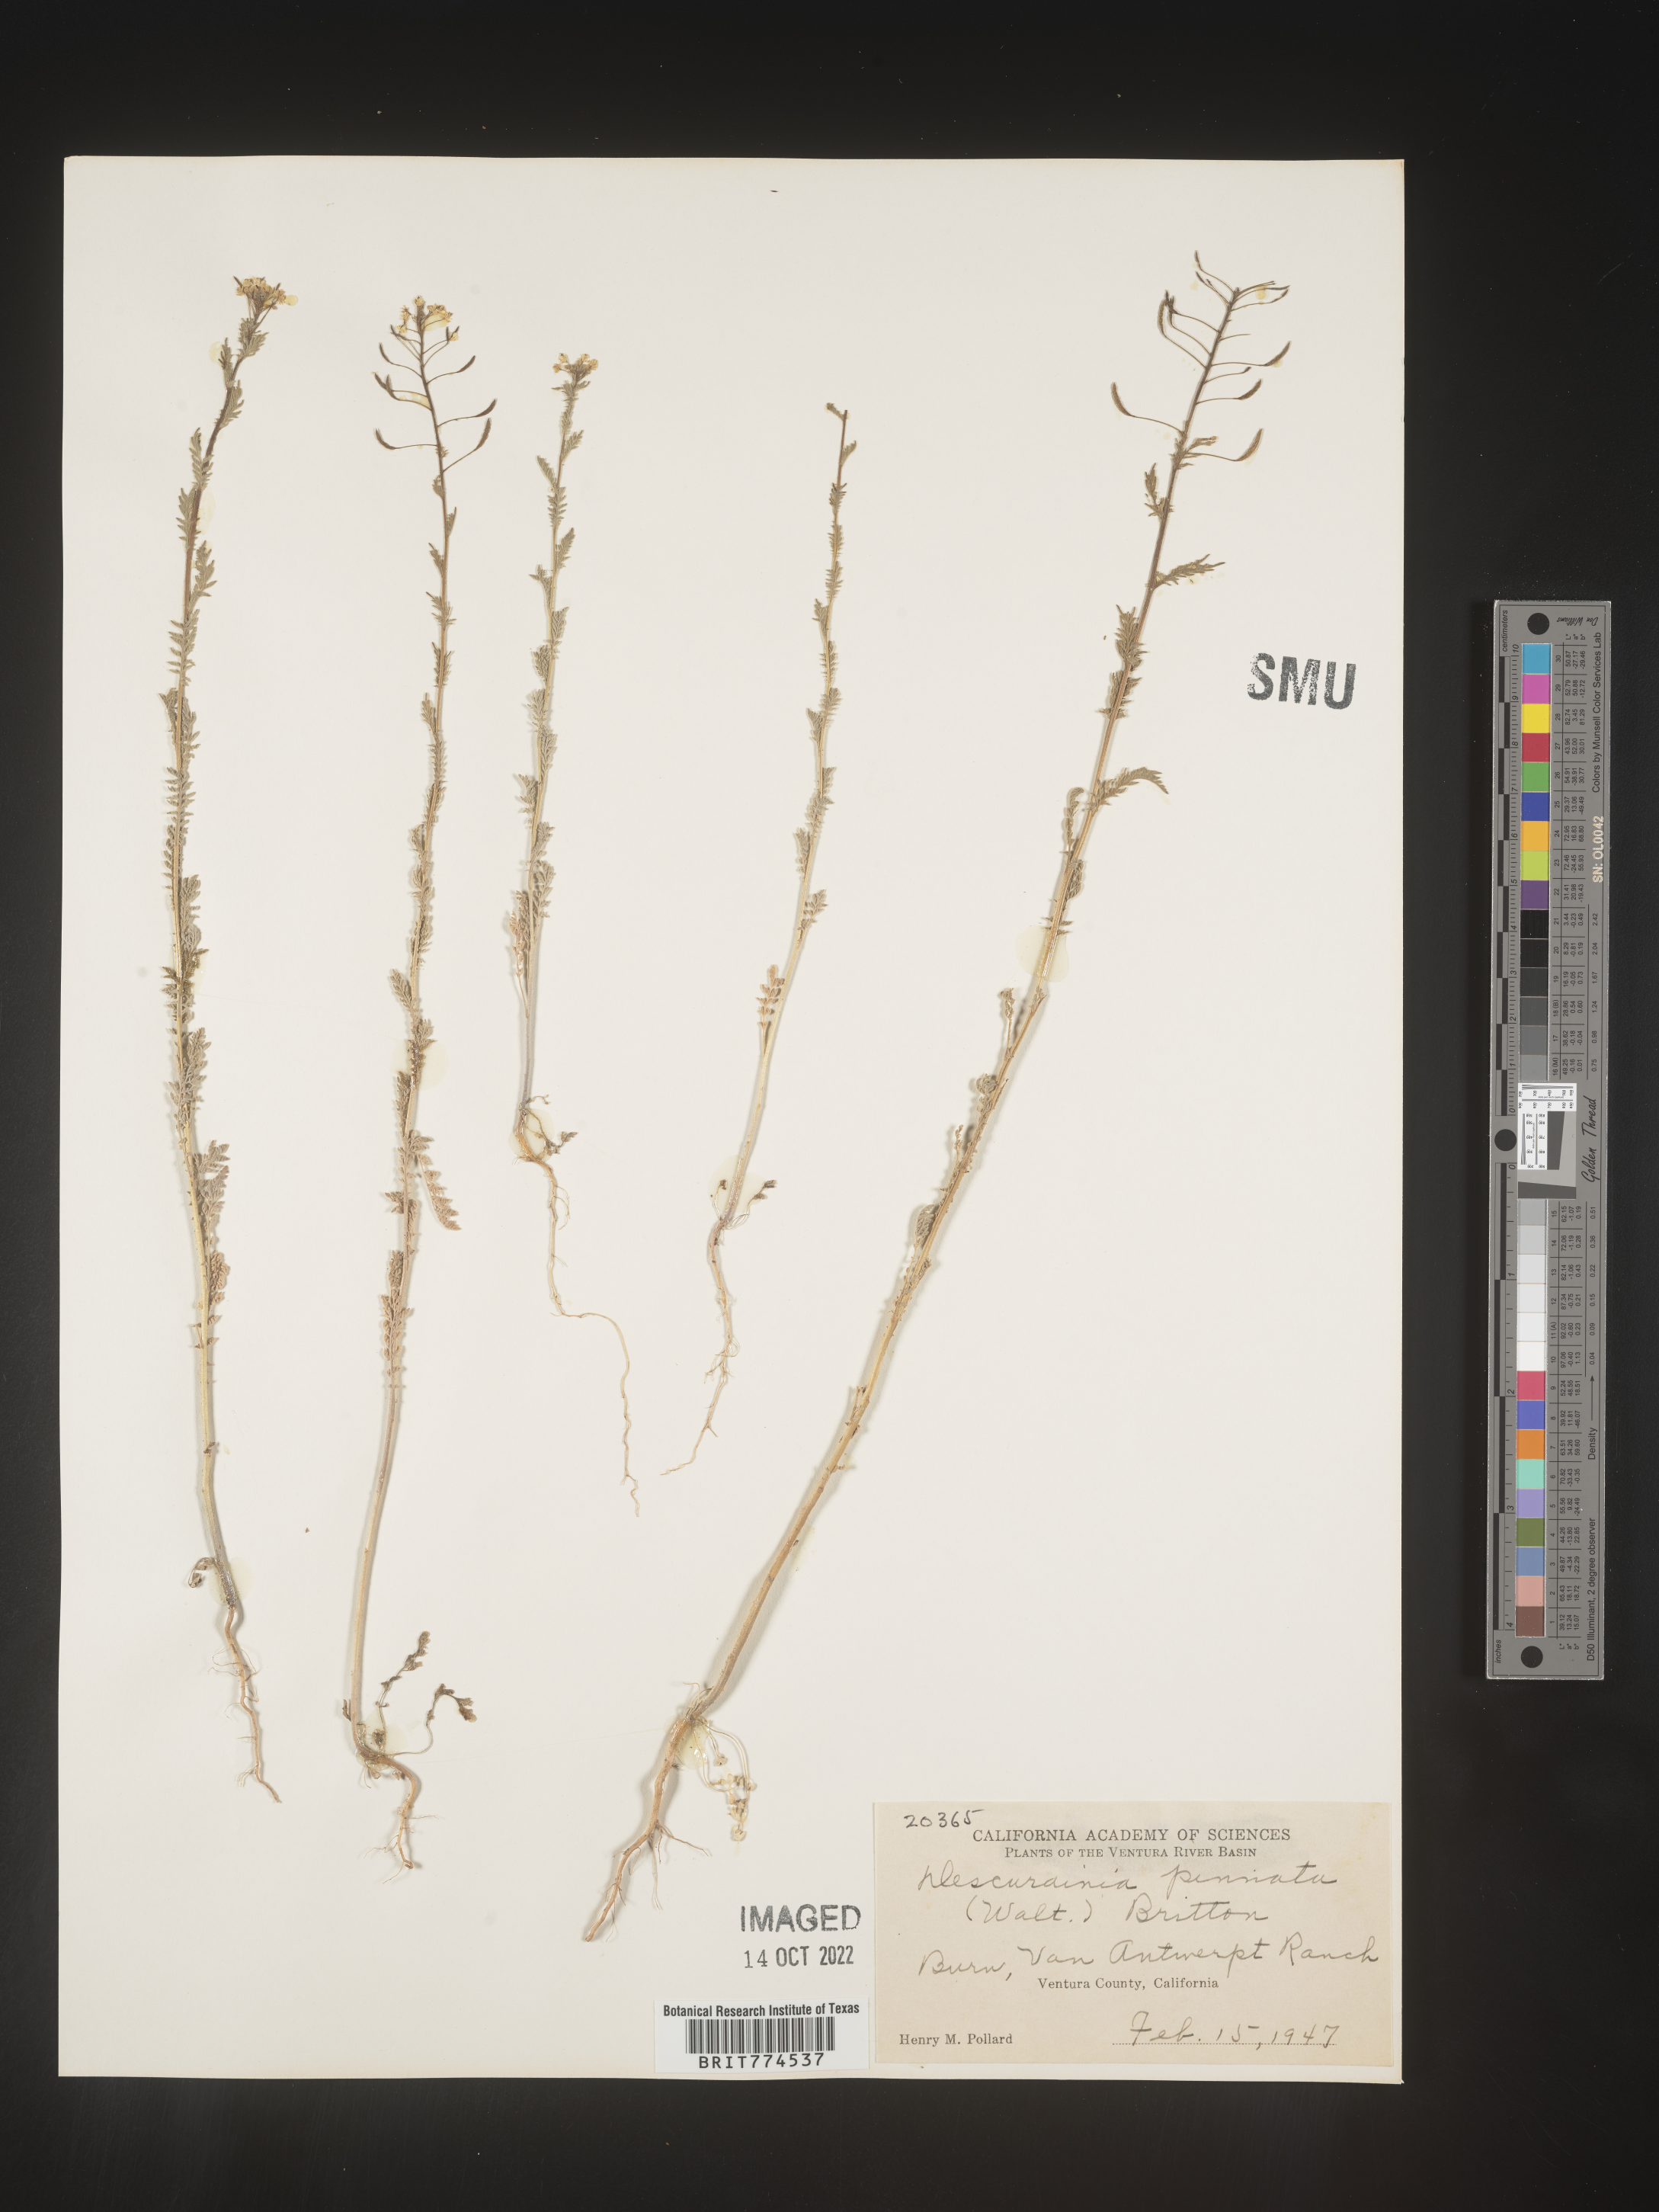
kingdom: Plantae
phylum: Tracheophyta
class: Magnoliopsida
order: Brassicales
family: Brassicaceae
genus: Descurainia
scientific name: Descurainia pinnata
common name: Western tansy mustard
